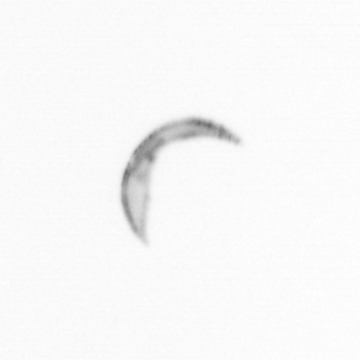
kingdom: Chromista
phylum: Ochrophyta
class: Bacillariophyceae
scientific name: Bacillariophyceae
